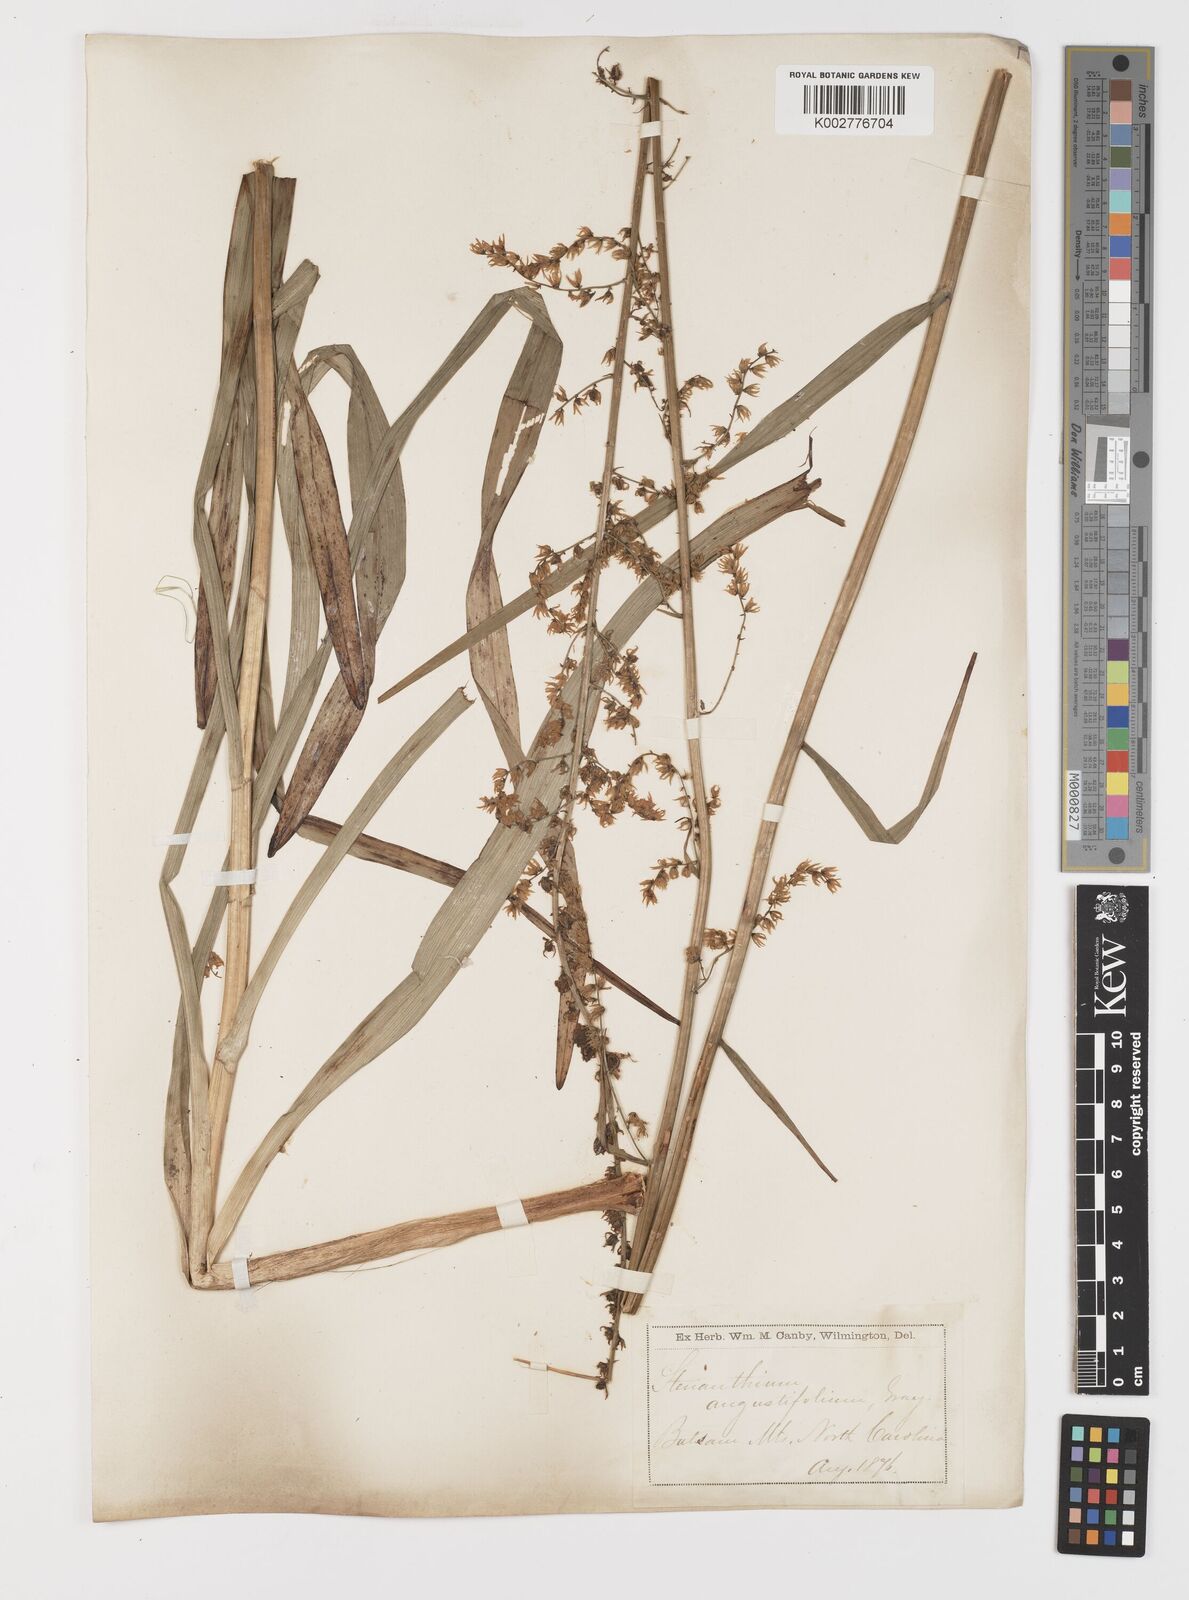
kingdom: Plantae
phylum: Tracheophyta
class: Liliopsida
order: Liliales
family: Melanthiaceae
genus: Stenanthium
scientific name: Stenanthium gramineum
